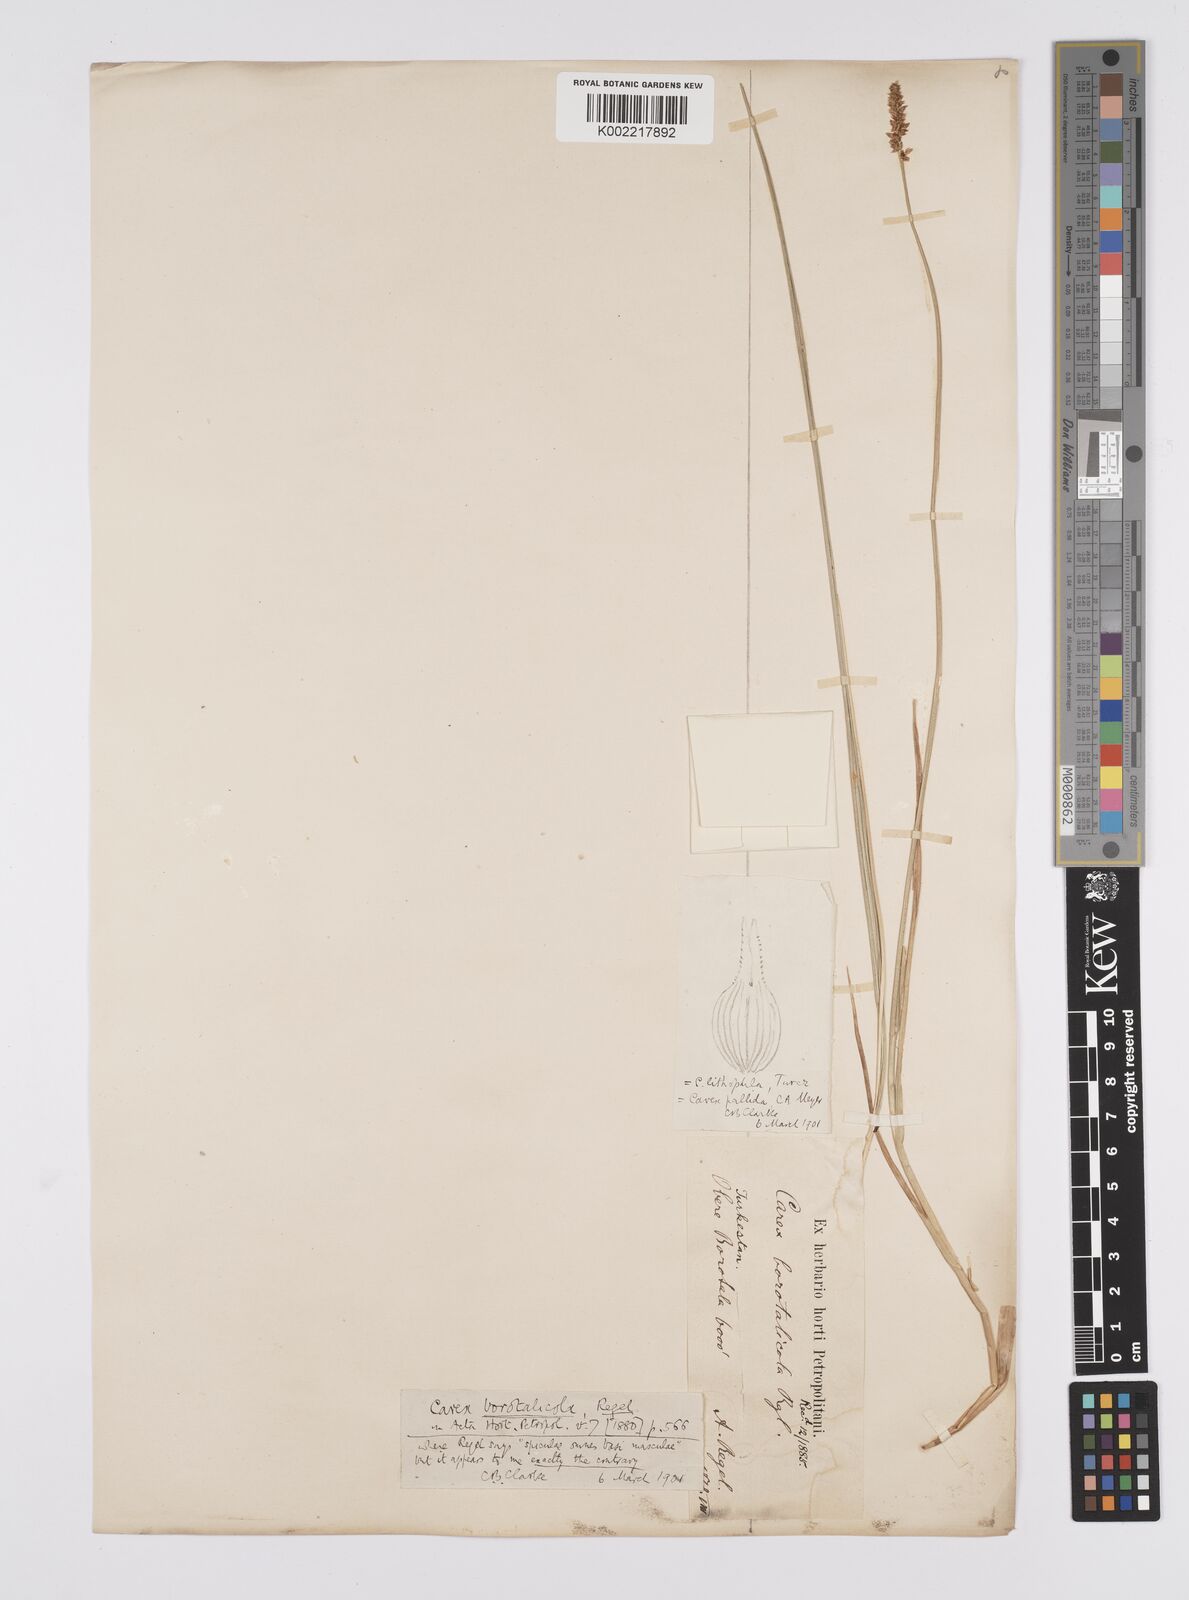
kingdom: Plantae
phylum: Tracheophyta
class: Liliopsida
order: Poales
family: Cyperaceae
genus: Carex
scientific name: Carex accrescens
